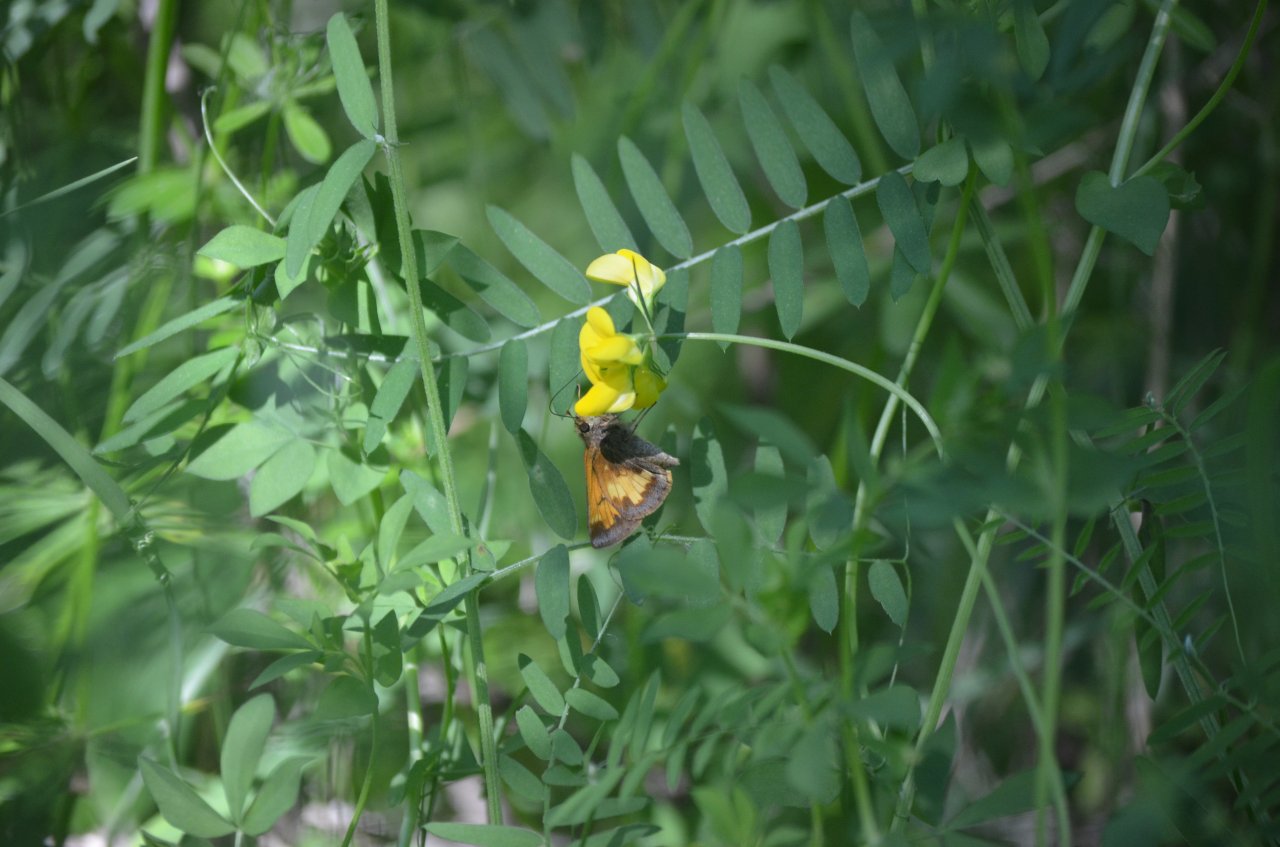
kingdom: Animalia
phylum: Arthropoda
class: Insecta
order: Lepidoptera
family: Hesperiidae
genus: Lon
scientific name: Lon hobomok
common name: Hobomok Skipper
